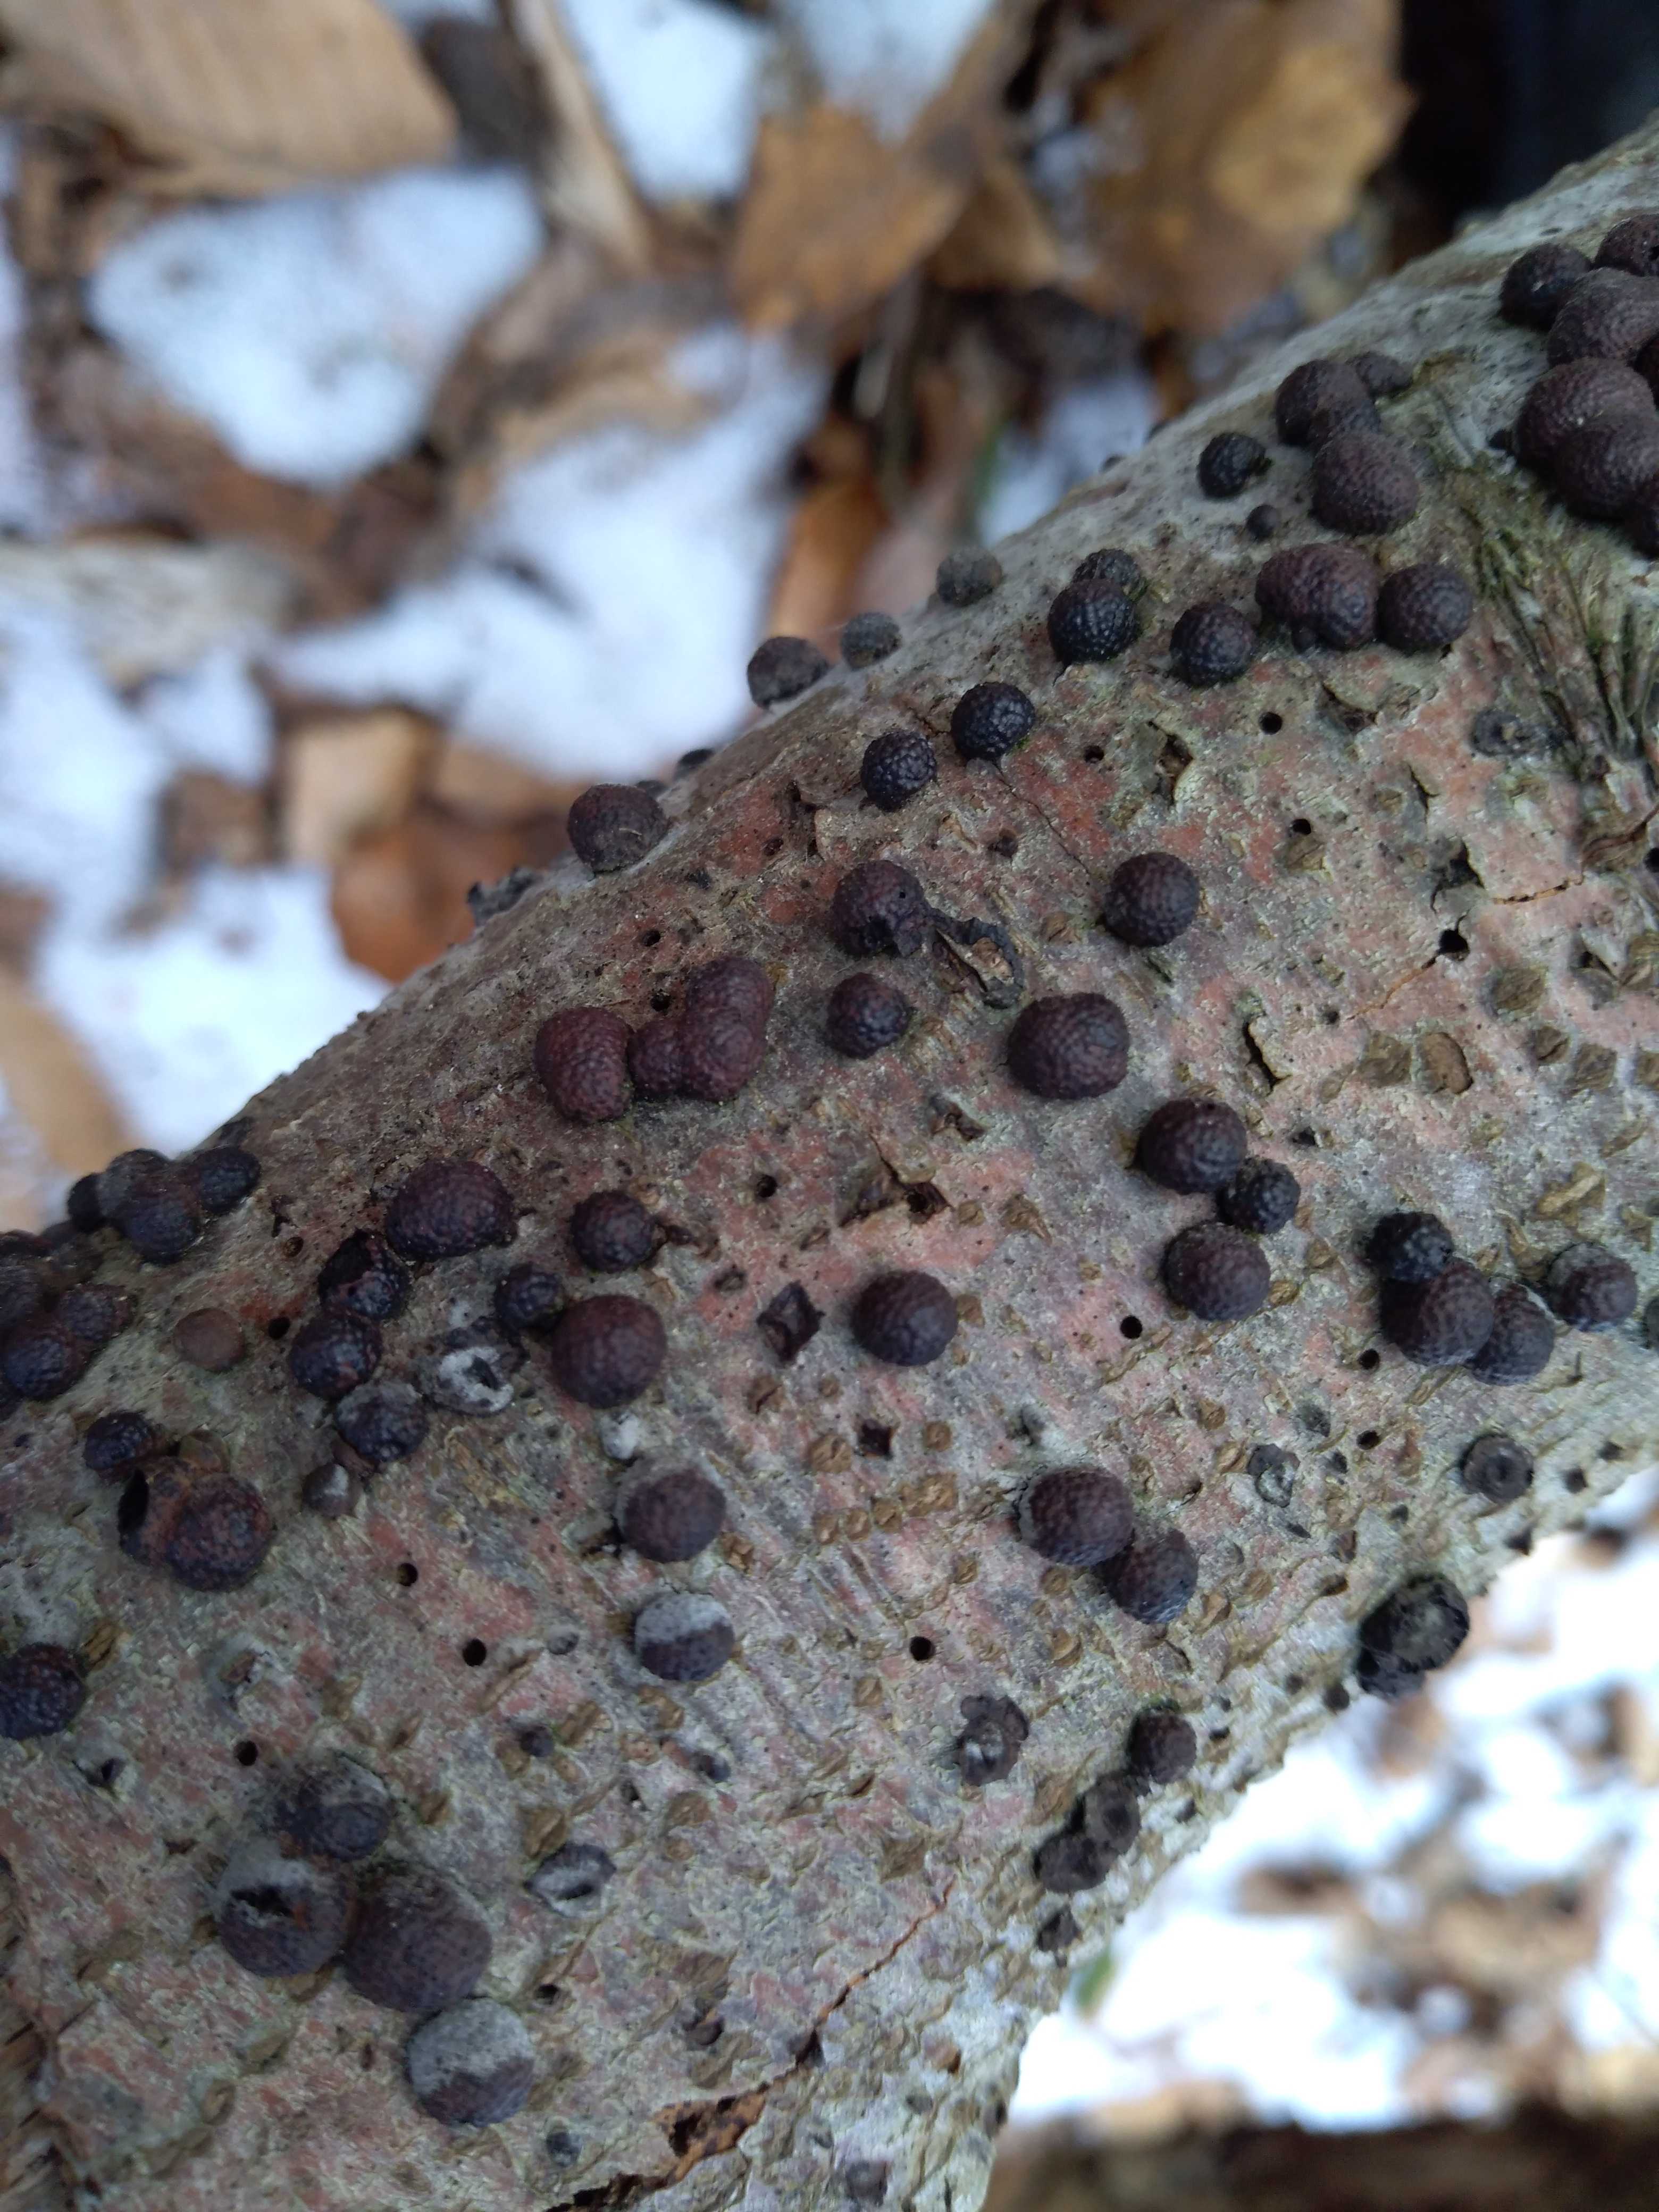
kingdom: Fungi
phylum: Ascomycota
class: Sordariomycetes
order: Xylariales
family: Hypoxylaceae
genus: Hypoxylon
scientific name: Hypoxylon fragiforme
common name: kuljordbær
